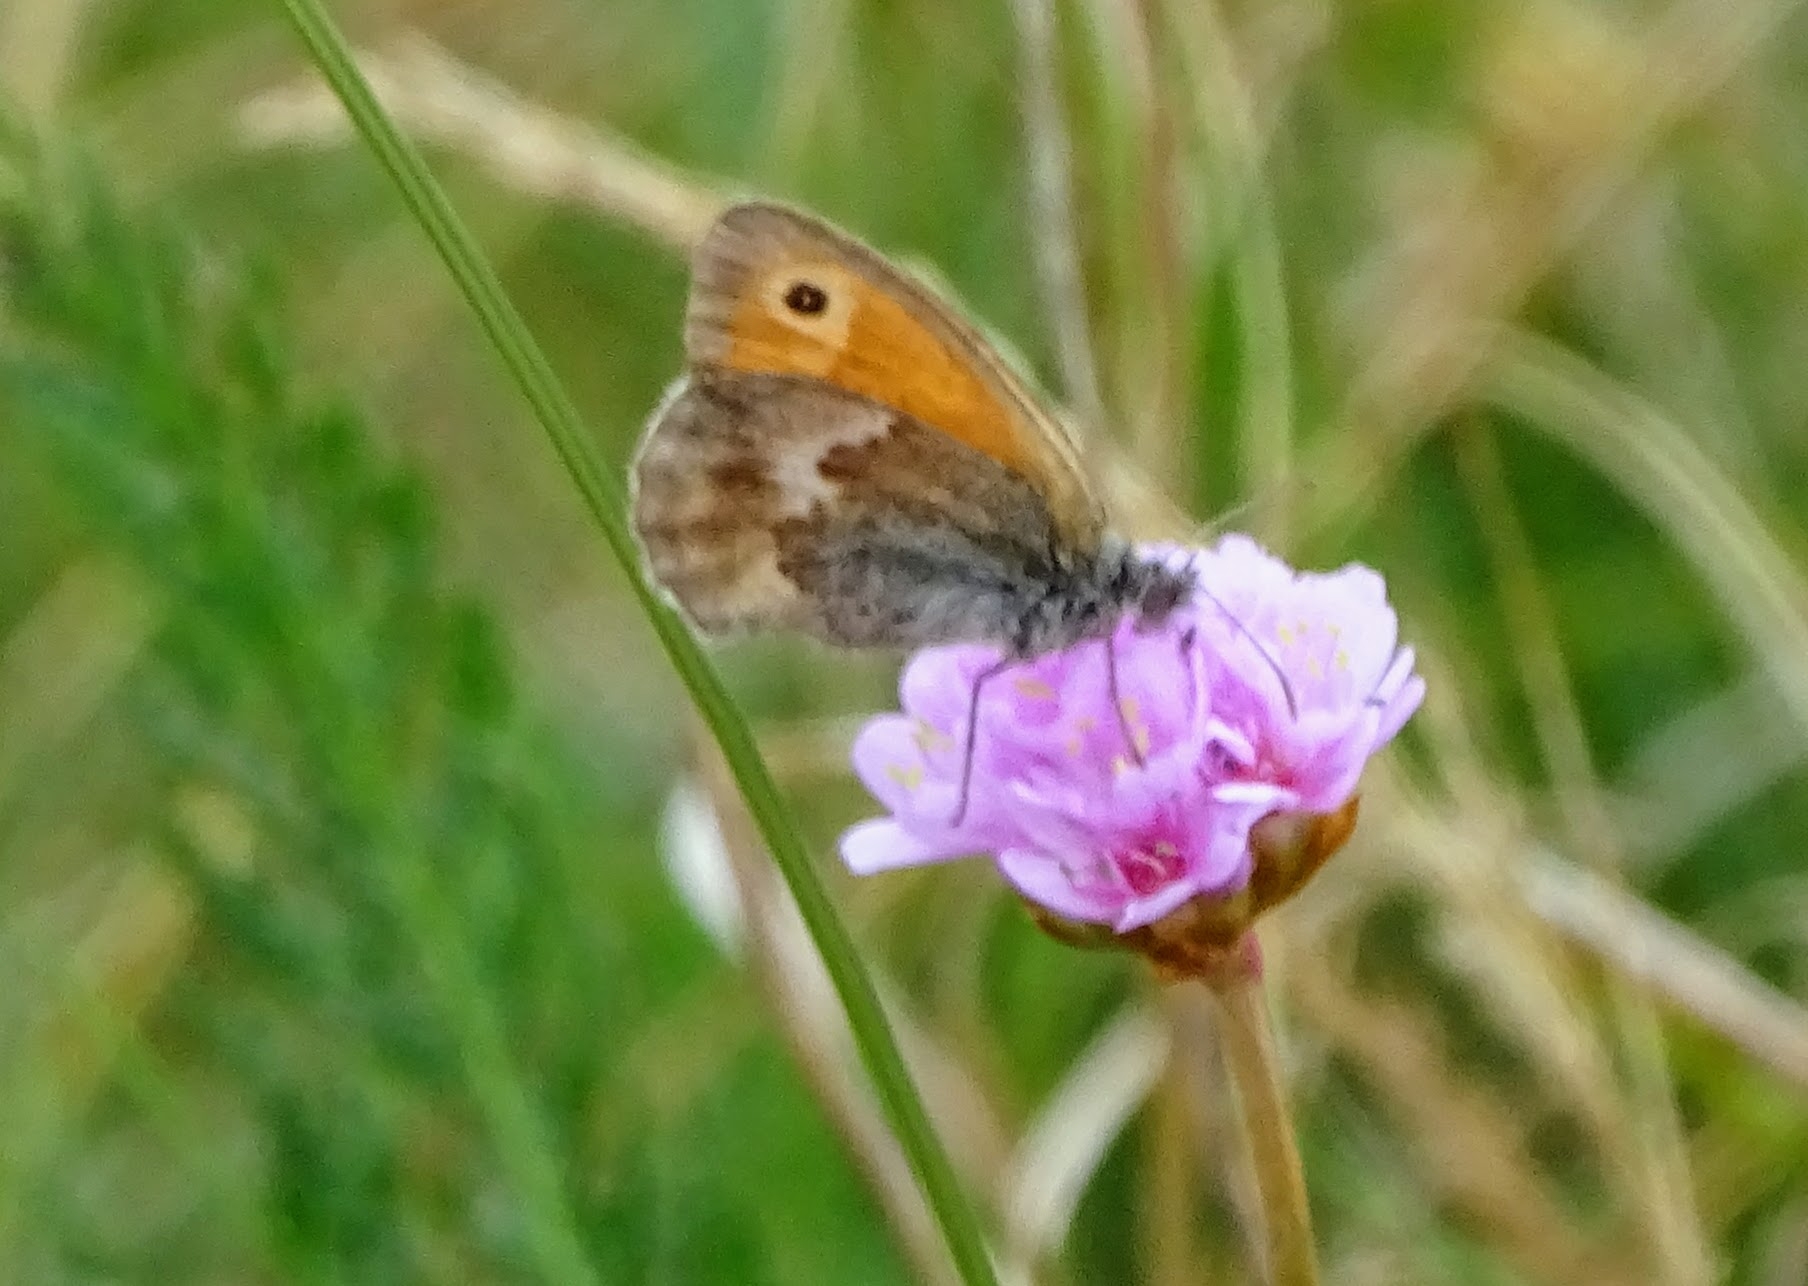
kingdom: Animalia
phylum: Arthropoda
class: Insecta
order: Lepidoptera
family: Nymphalidae
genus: Coenonympha
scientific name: Coenonympha pamphilus
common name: Okkergul randøje
